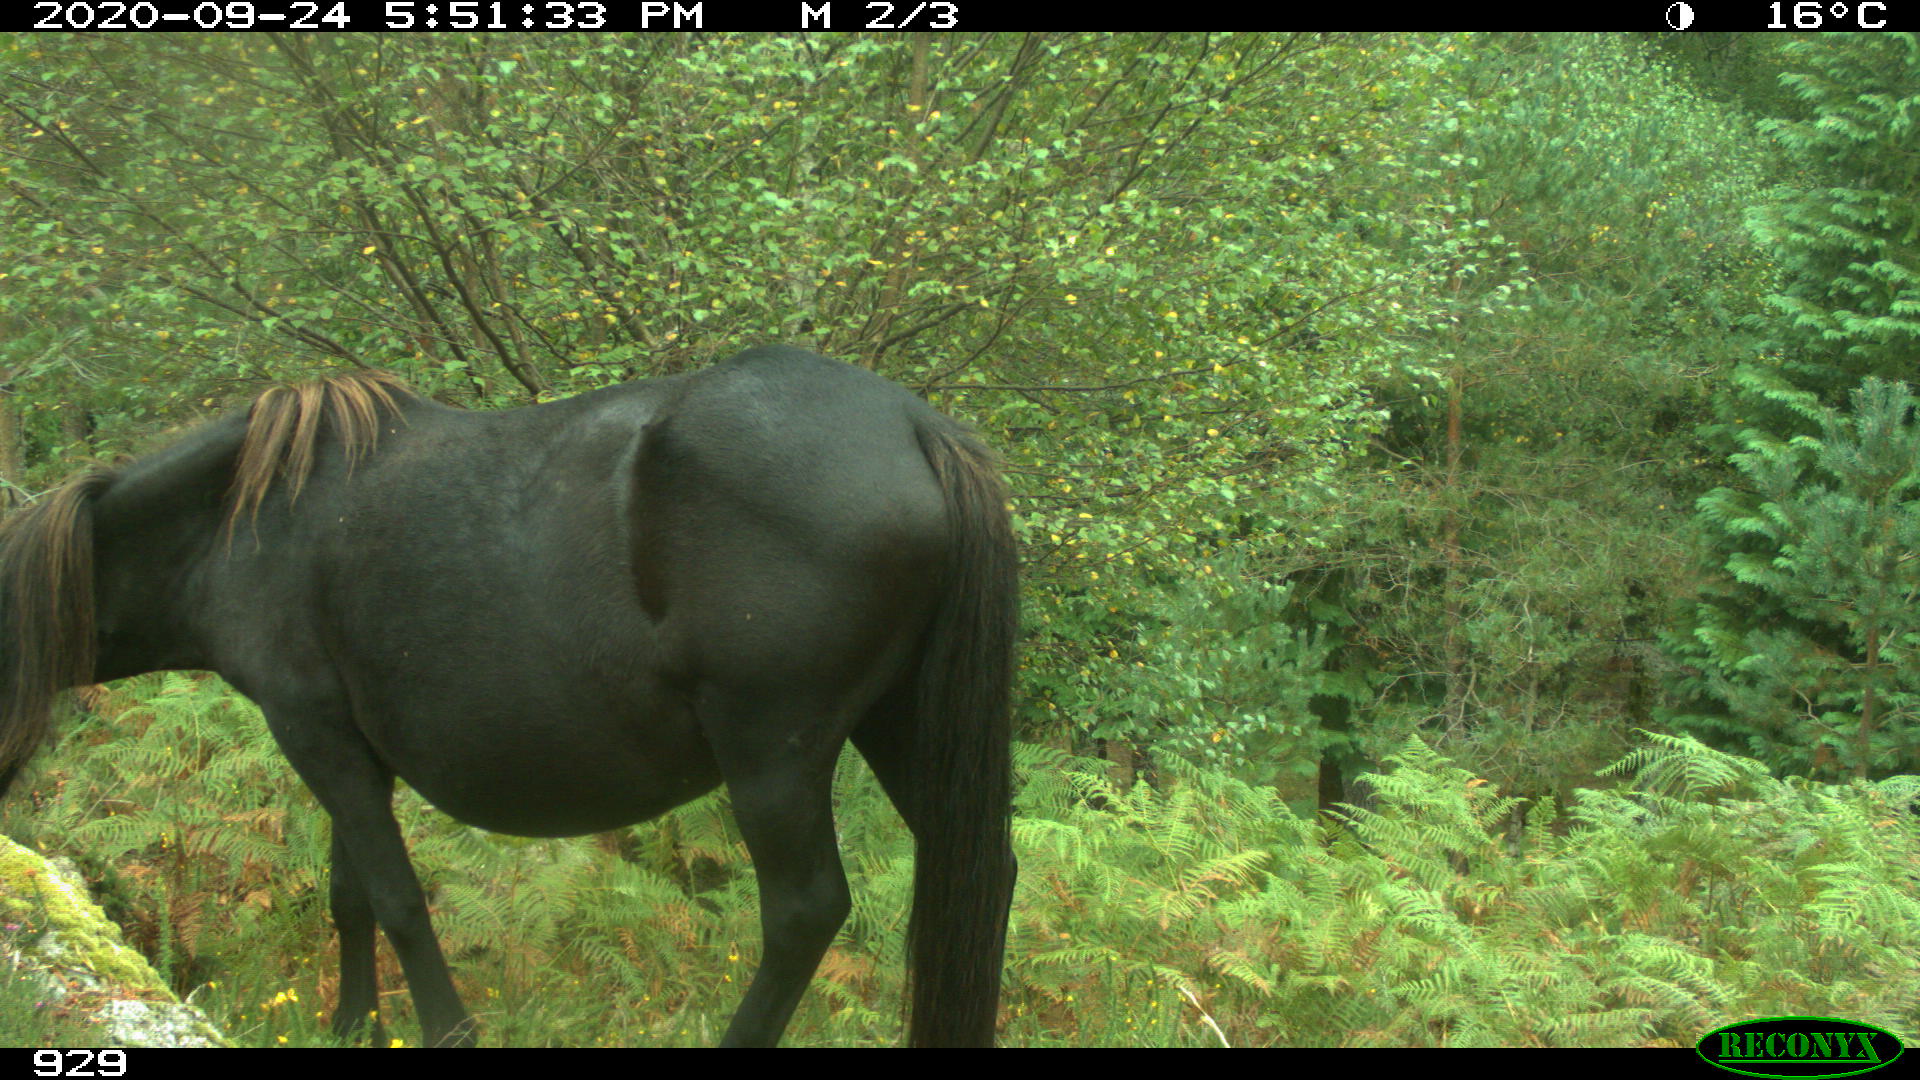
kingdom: Animalia
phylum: Chordata
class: Mammalia
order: Perissodactyla
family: Equidae
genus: Equus
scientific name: Equus caballus
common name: Horse
